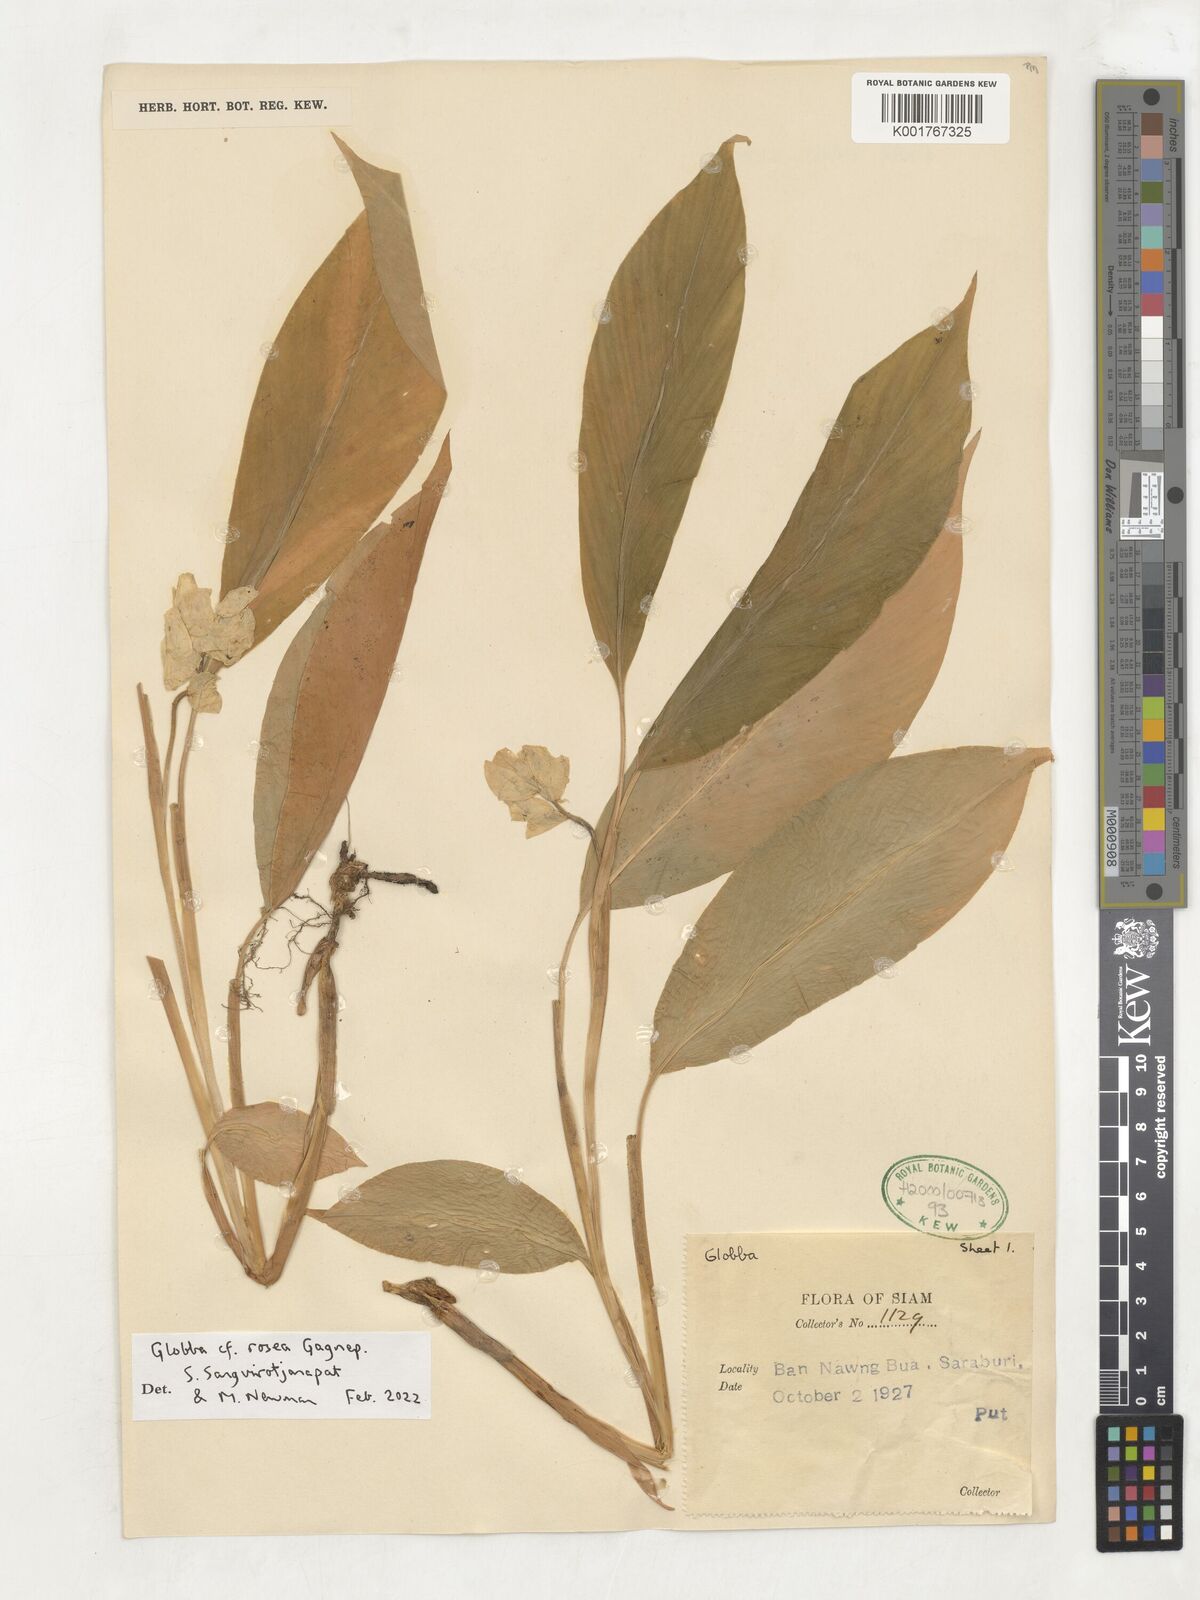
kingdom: Plantae
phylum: Tracheophyta
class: Liliopsida
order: Zingiberales
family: Zingiberaceae
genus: Globba
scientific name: Globba rosea
